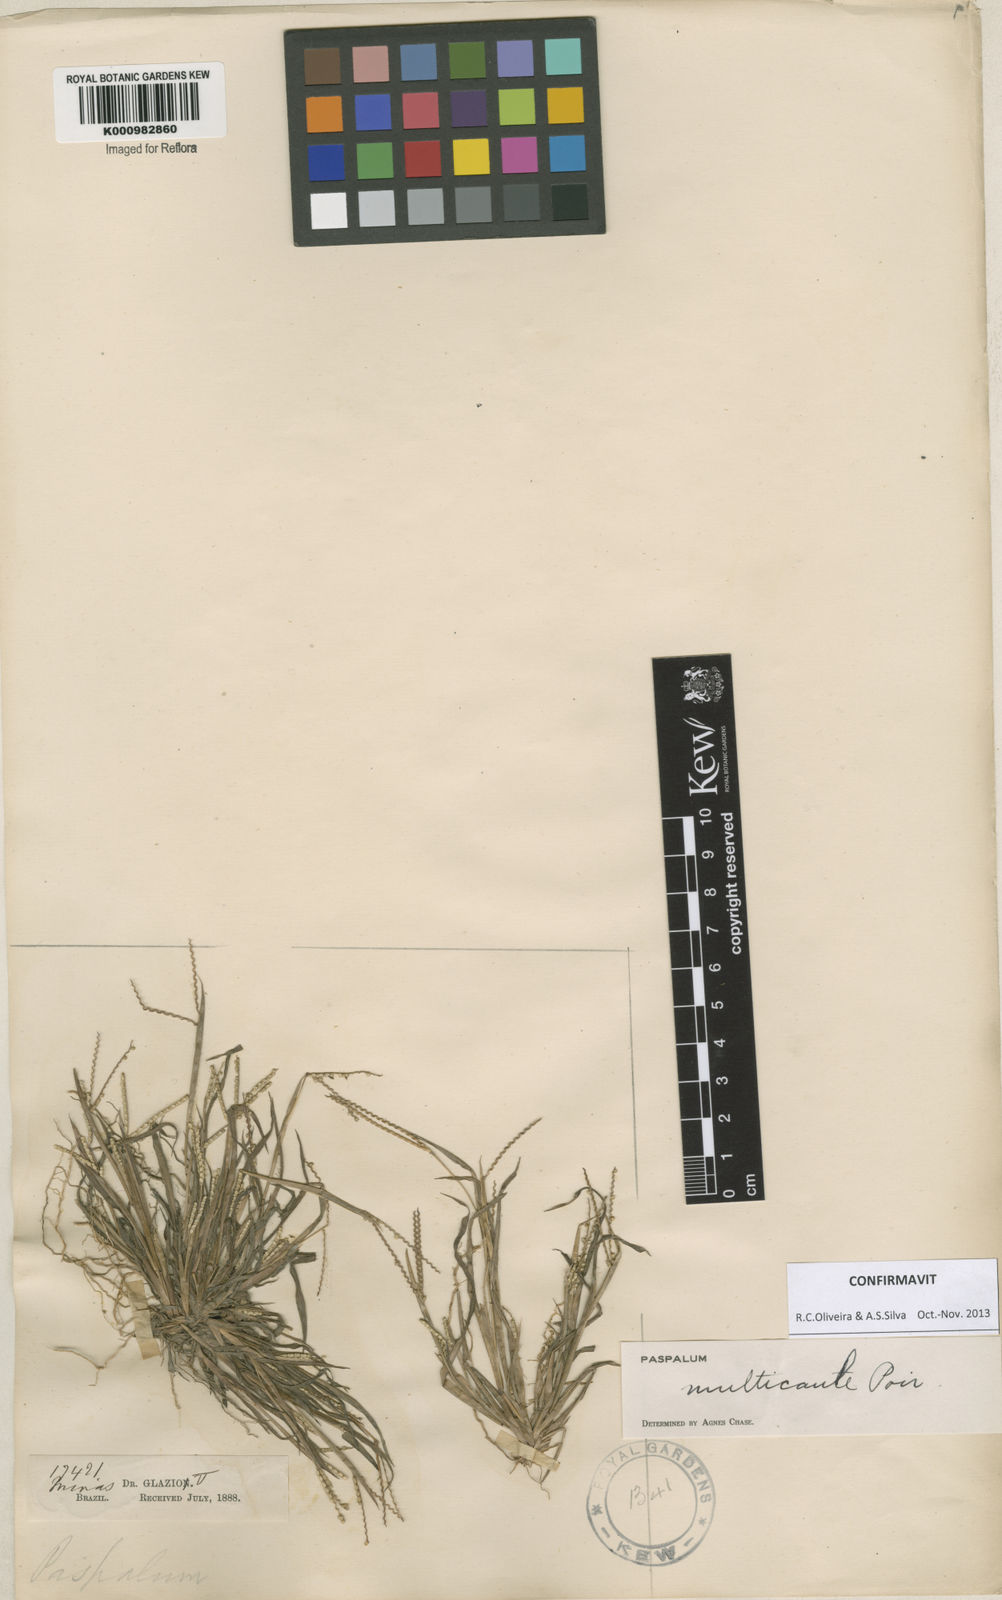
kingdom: Plantae
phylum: Tracheophyta
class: Liliopsida
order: Poales
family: Poaceae
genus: Paspalum
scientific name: Paspalum multicaule
